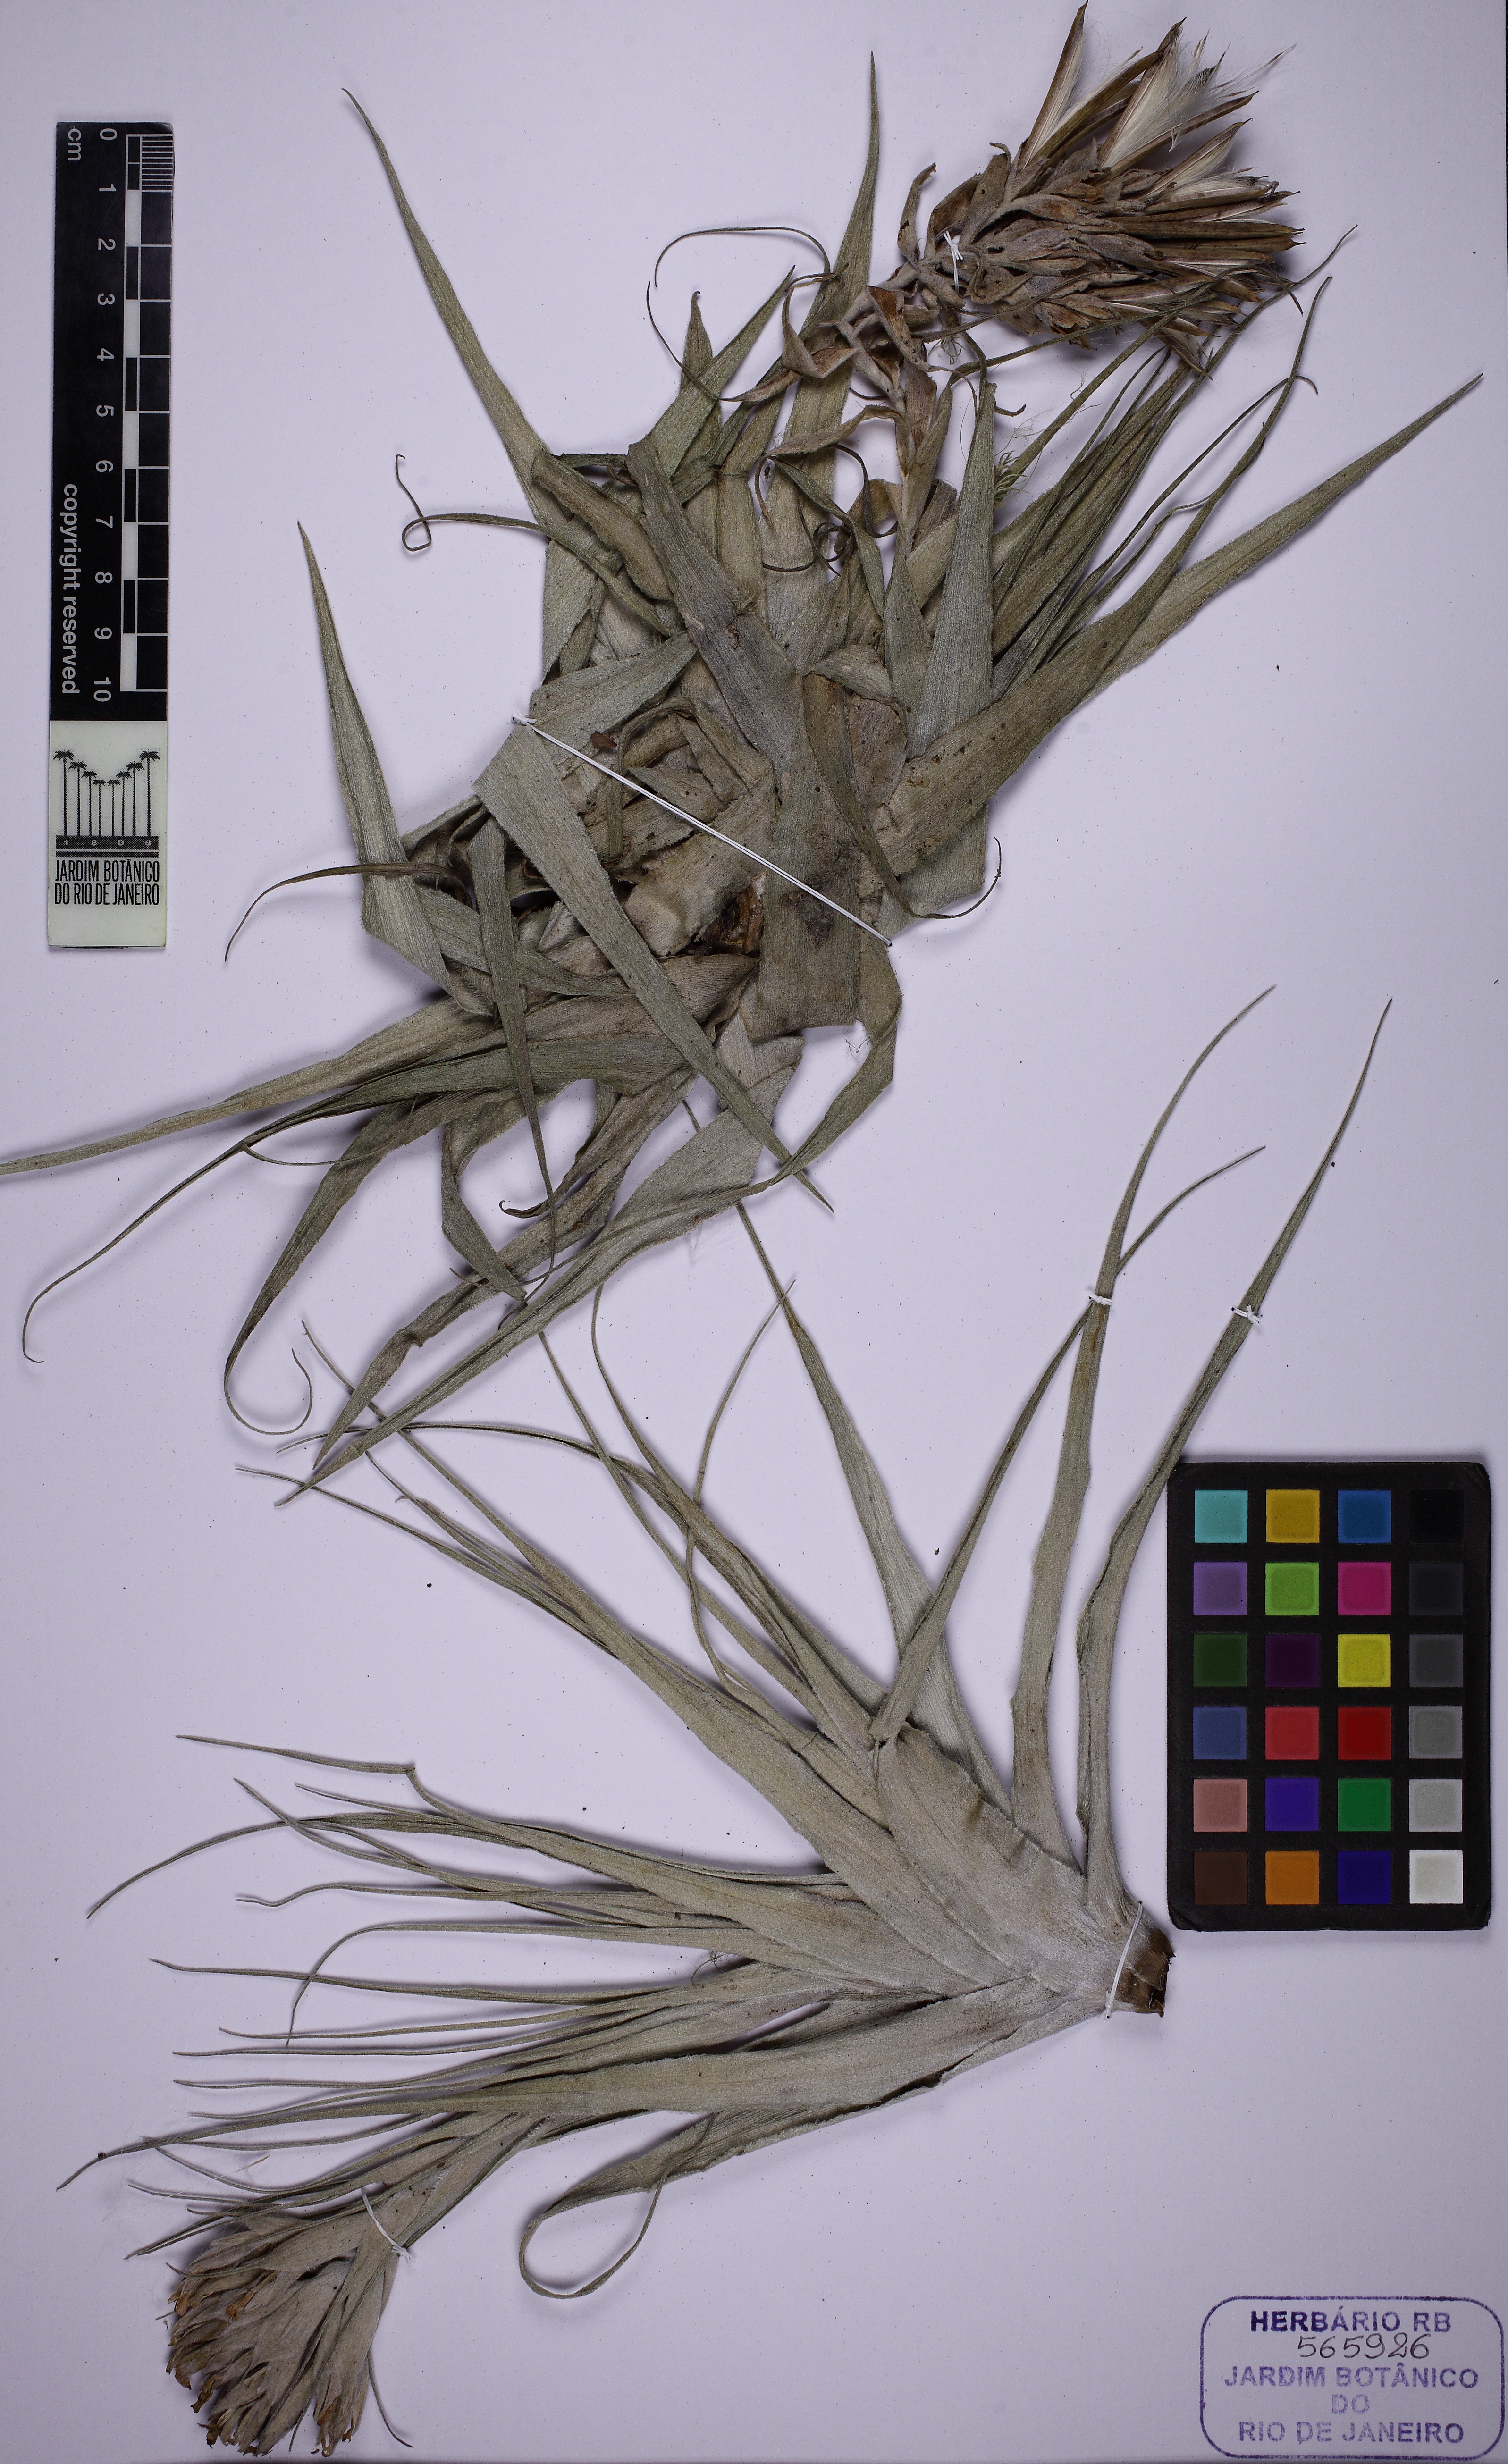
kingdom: Plantae
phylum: Tracheophyta
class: Liliopsida
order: Poales
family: Bromeliaceae
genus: Tillandsia
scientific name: Tillandsia gardneri
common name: Airplant
